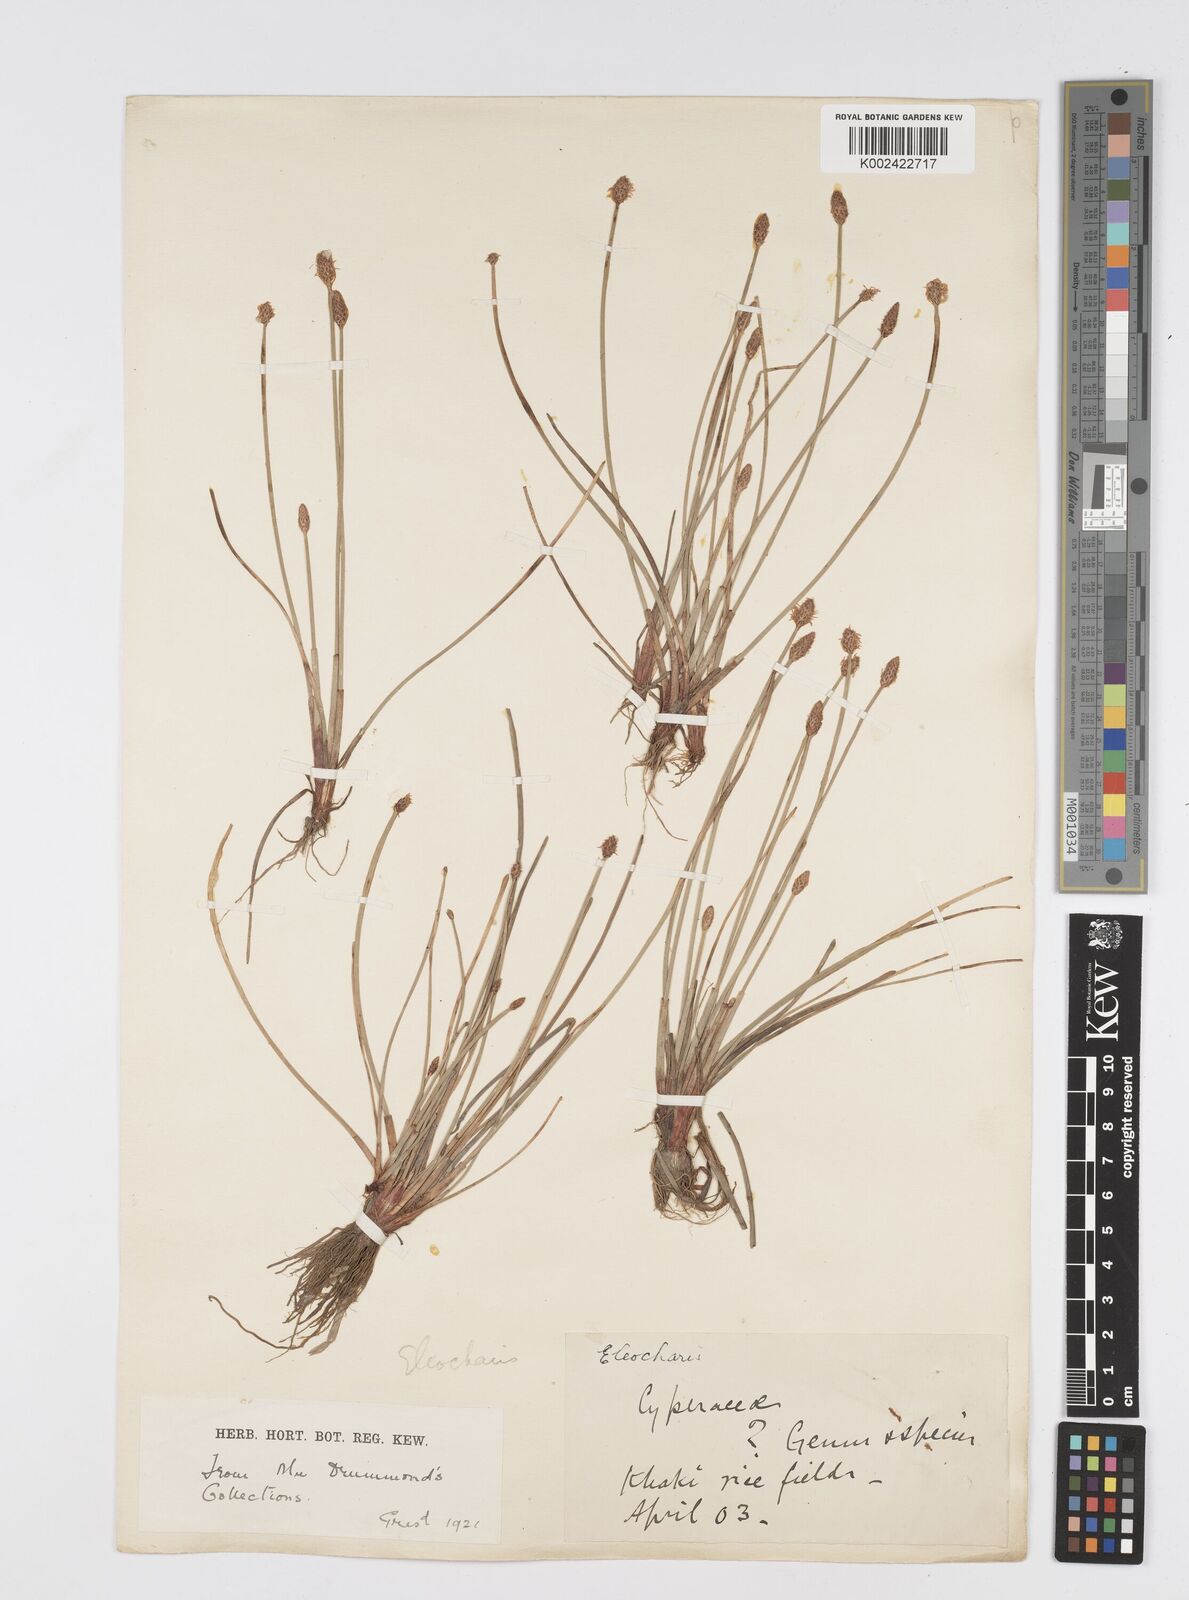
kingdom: Plantae
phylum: Tracheophyta
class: Liliopsida
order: Poales
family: Cyperaceae
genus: Eleocharis
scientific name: Eleocharis
